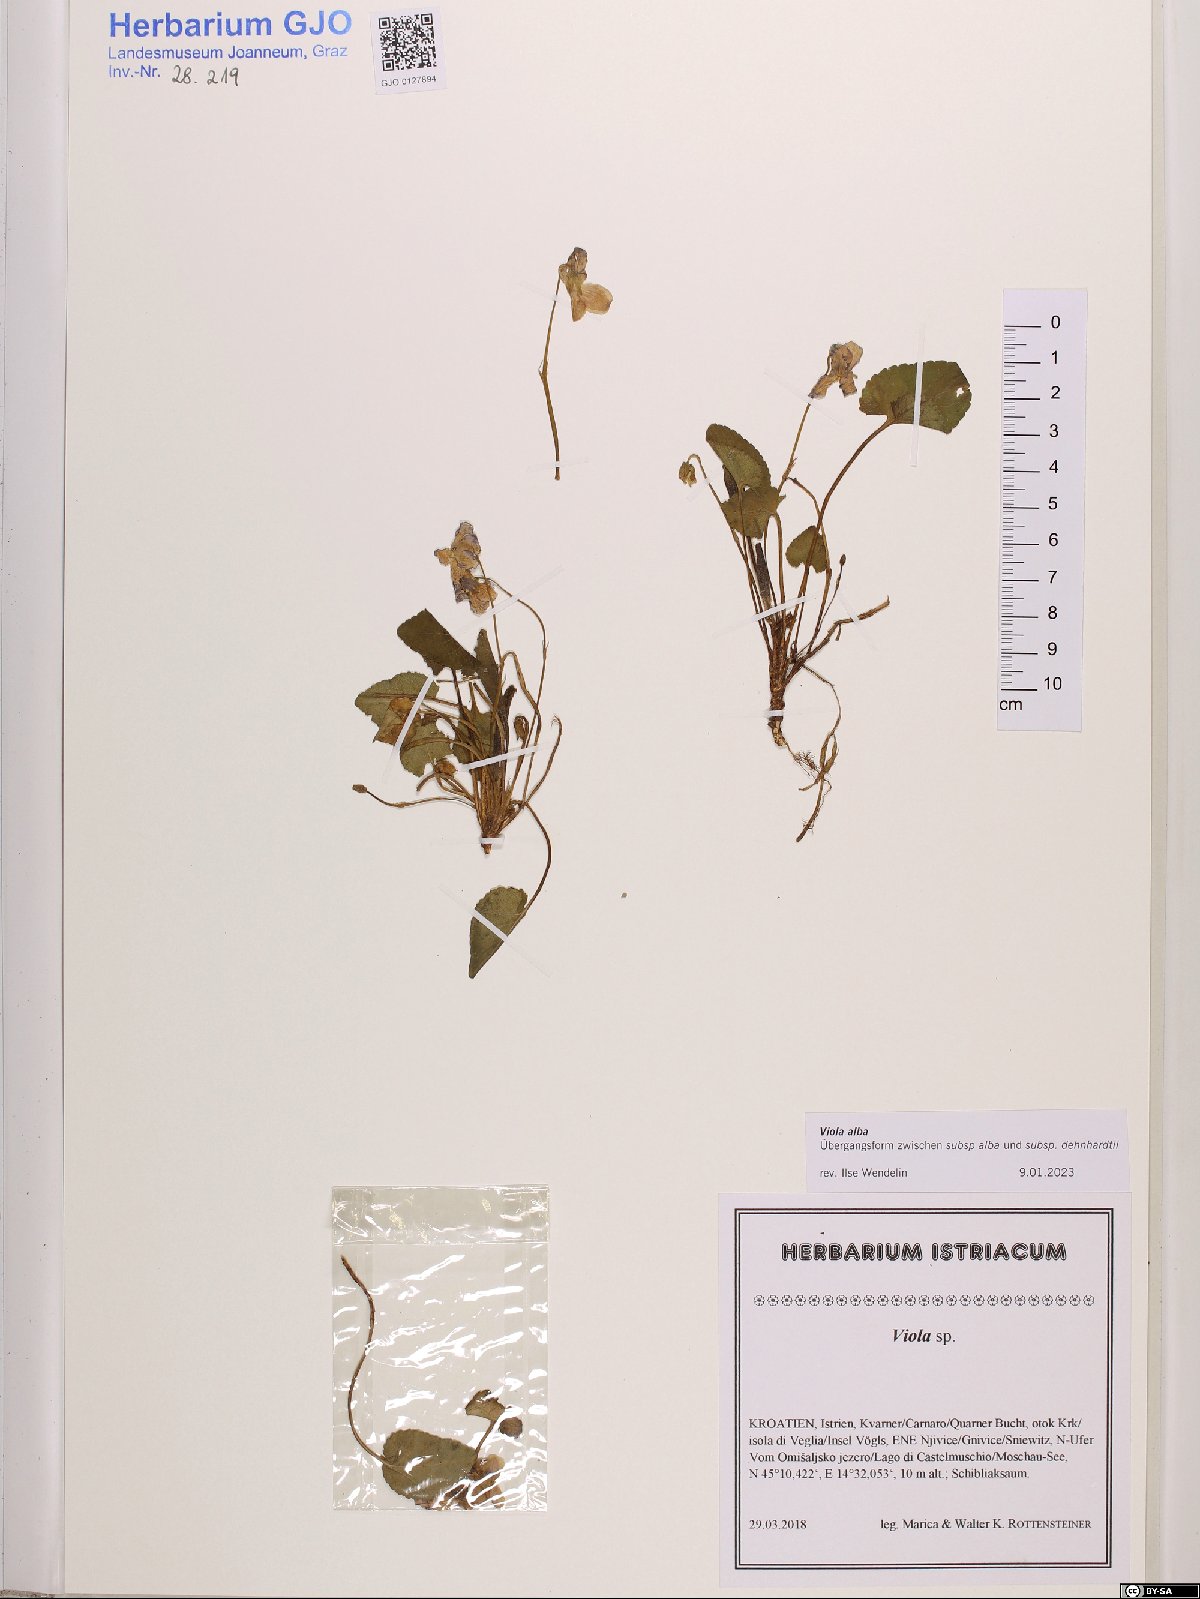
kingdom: Plantae
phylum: Tracheophyta
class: Magnoliopsida
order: Malpighiales
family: Violaceae
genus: Viola
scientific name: Viola alba
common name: White violet
